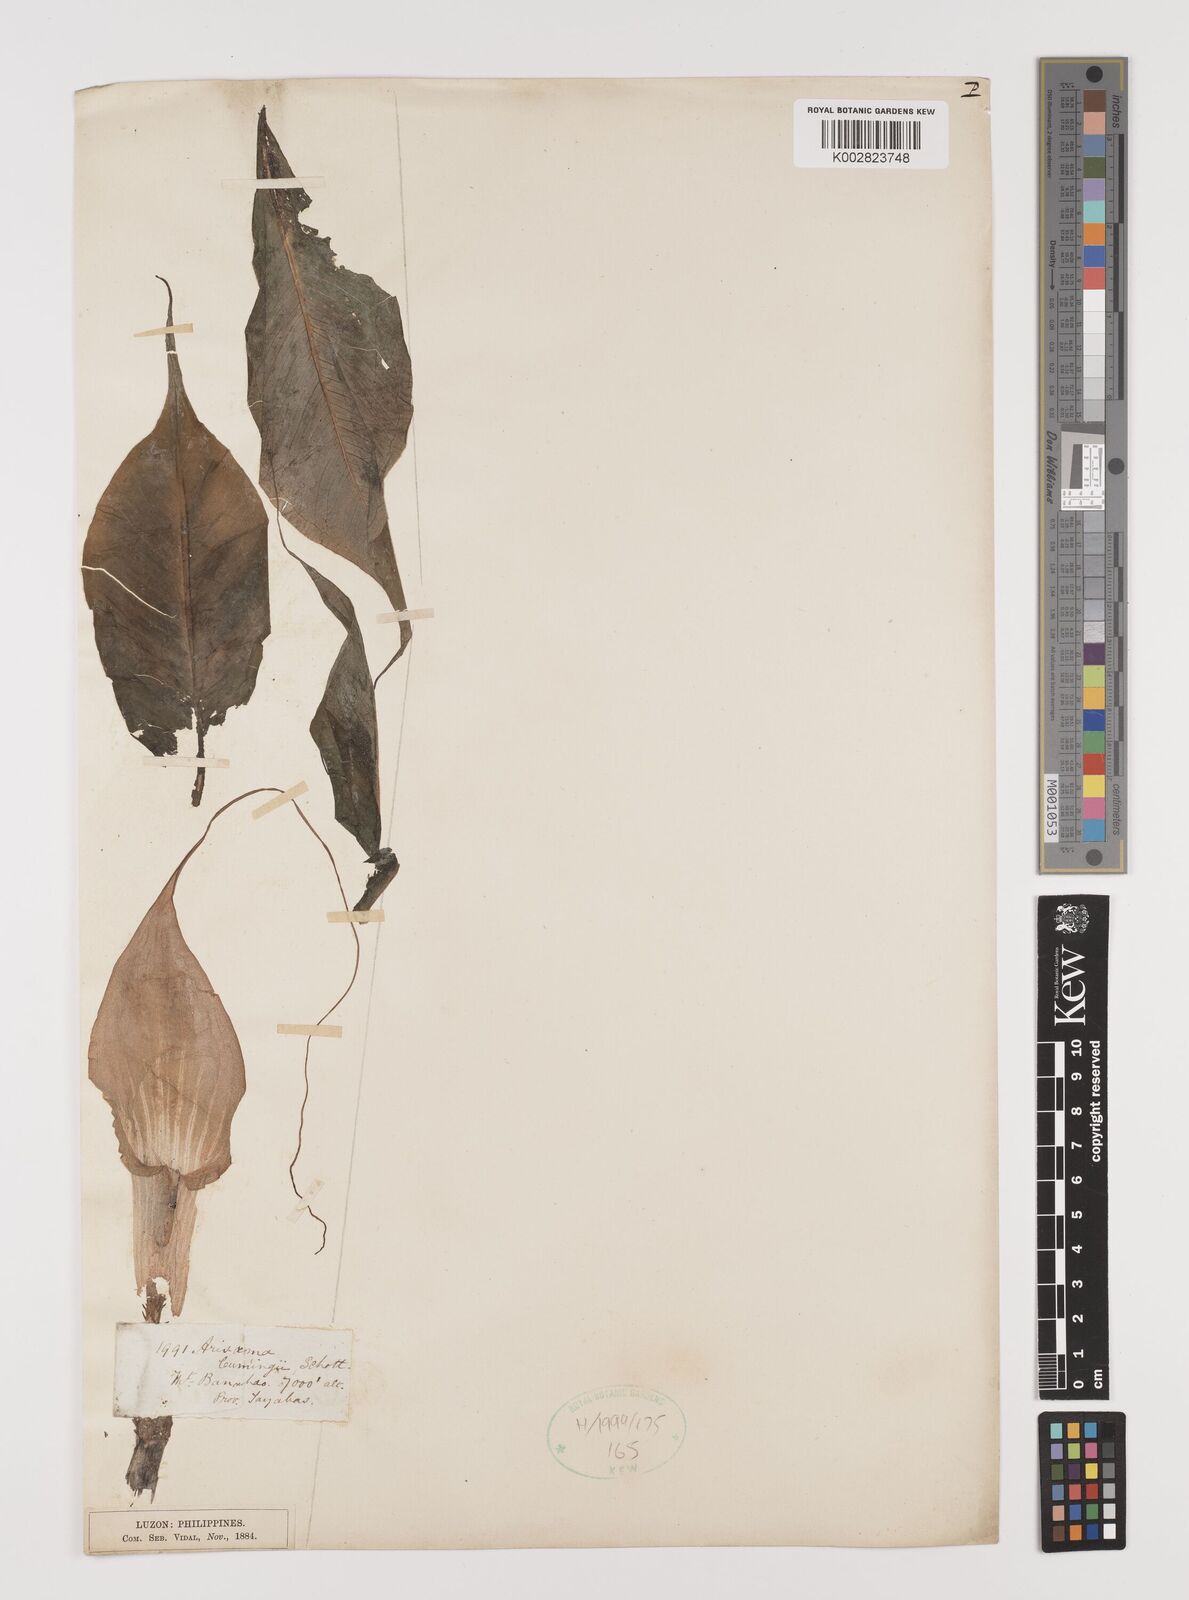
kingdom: Plantae
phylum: Tracheophyta
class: Liliopsida
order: Alismatales
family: Araceae
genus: Arisaema
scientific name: Arisaema polyphyllum
